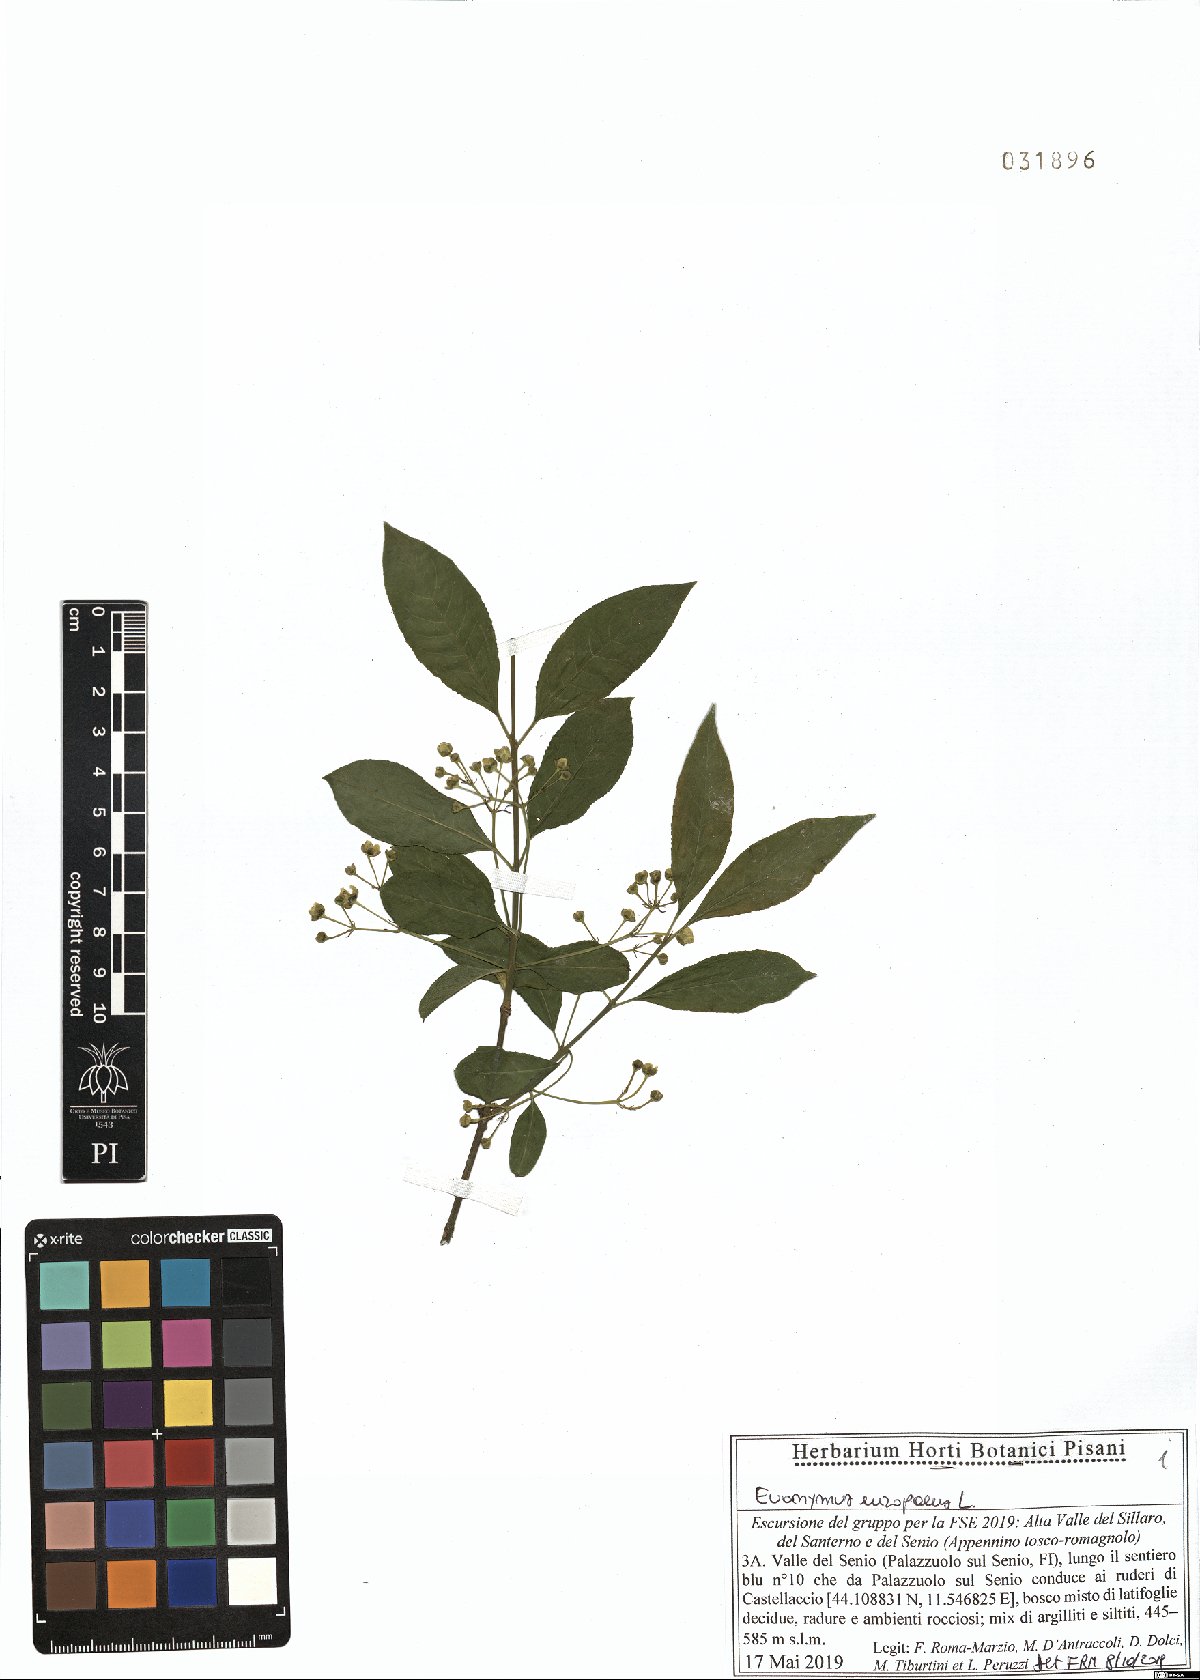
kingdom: Plantae
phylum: Tracheophyta
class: Magnoliopsida
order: Celastrales
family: Celastraceae
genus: Euonymus
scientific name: Euonymus europaeus
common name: Spindle
